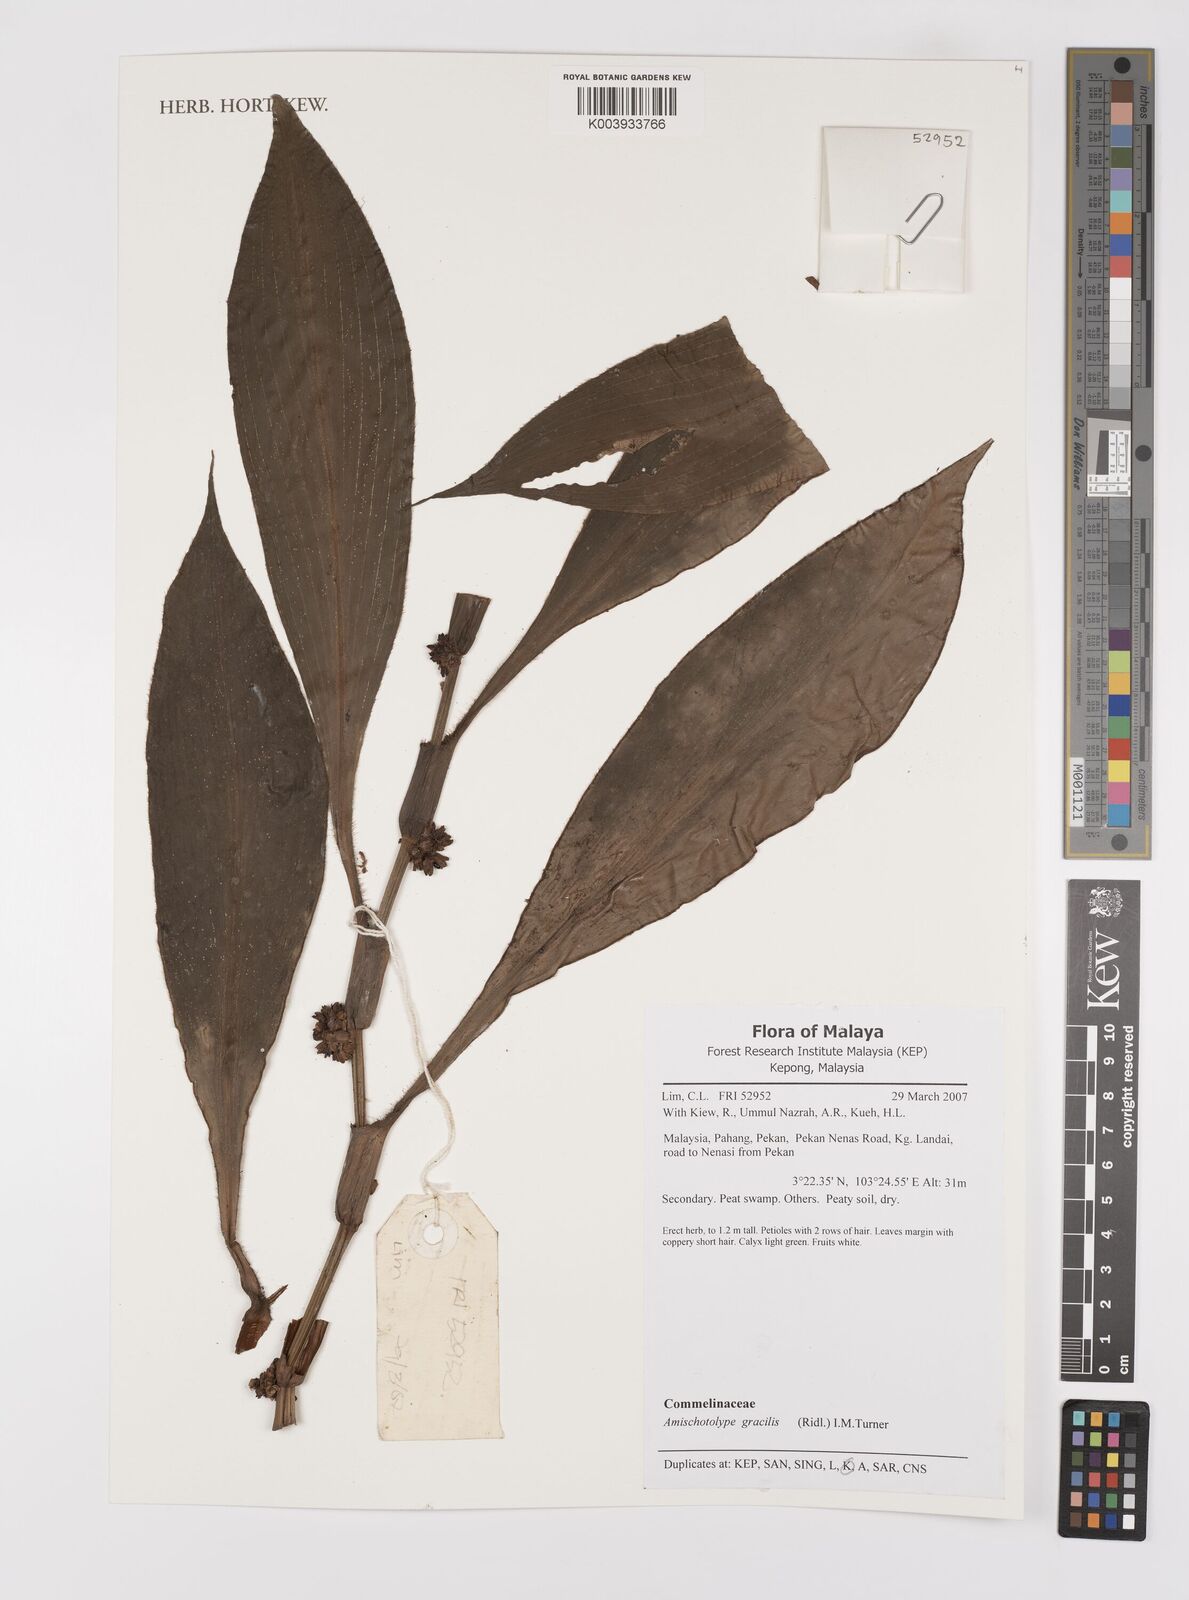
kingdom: Plantae
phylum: Tracheophyta
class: Liliopsida
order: Commelinales
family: Commelinaceae
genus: Amischotolype
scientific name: Amischotolype gracilis
